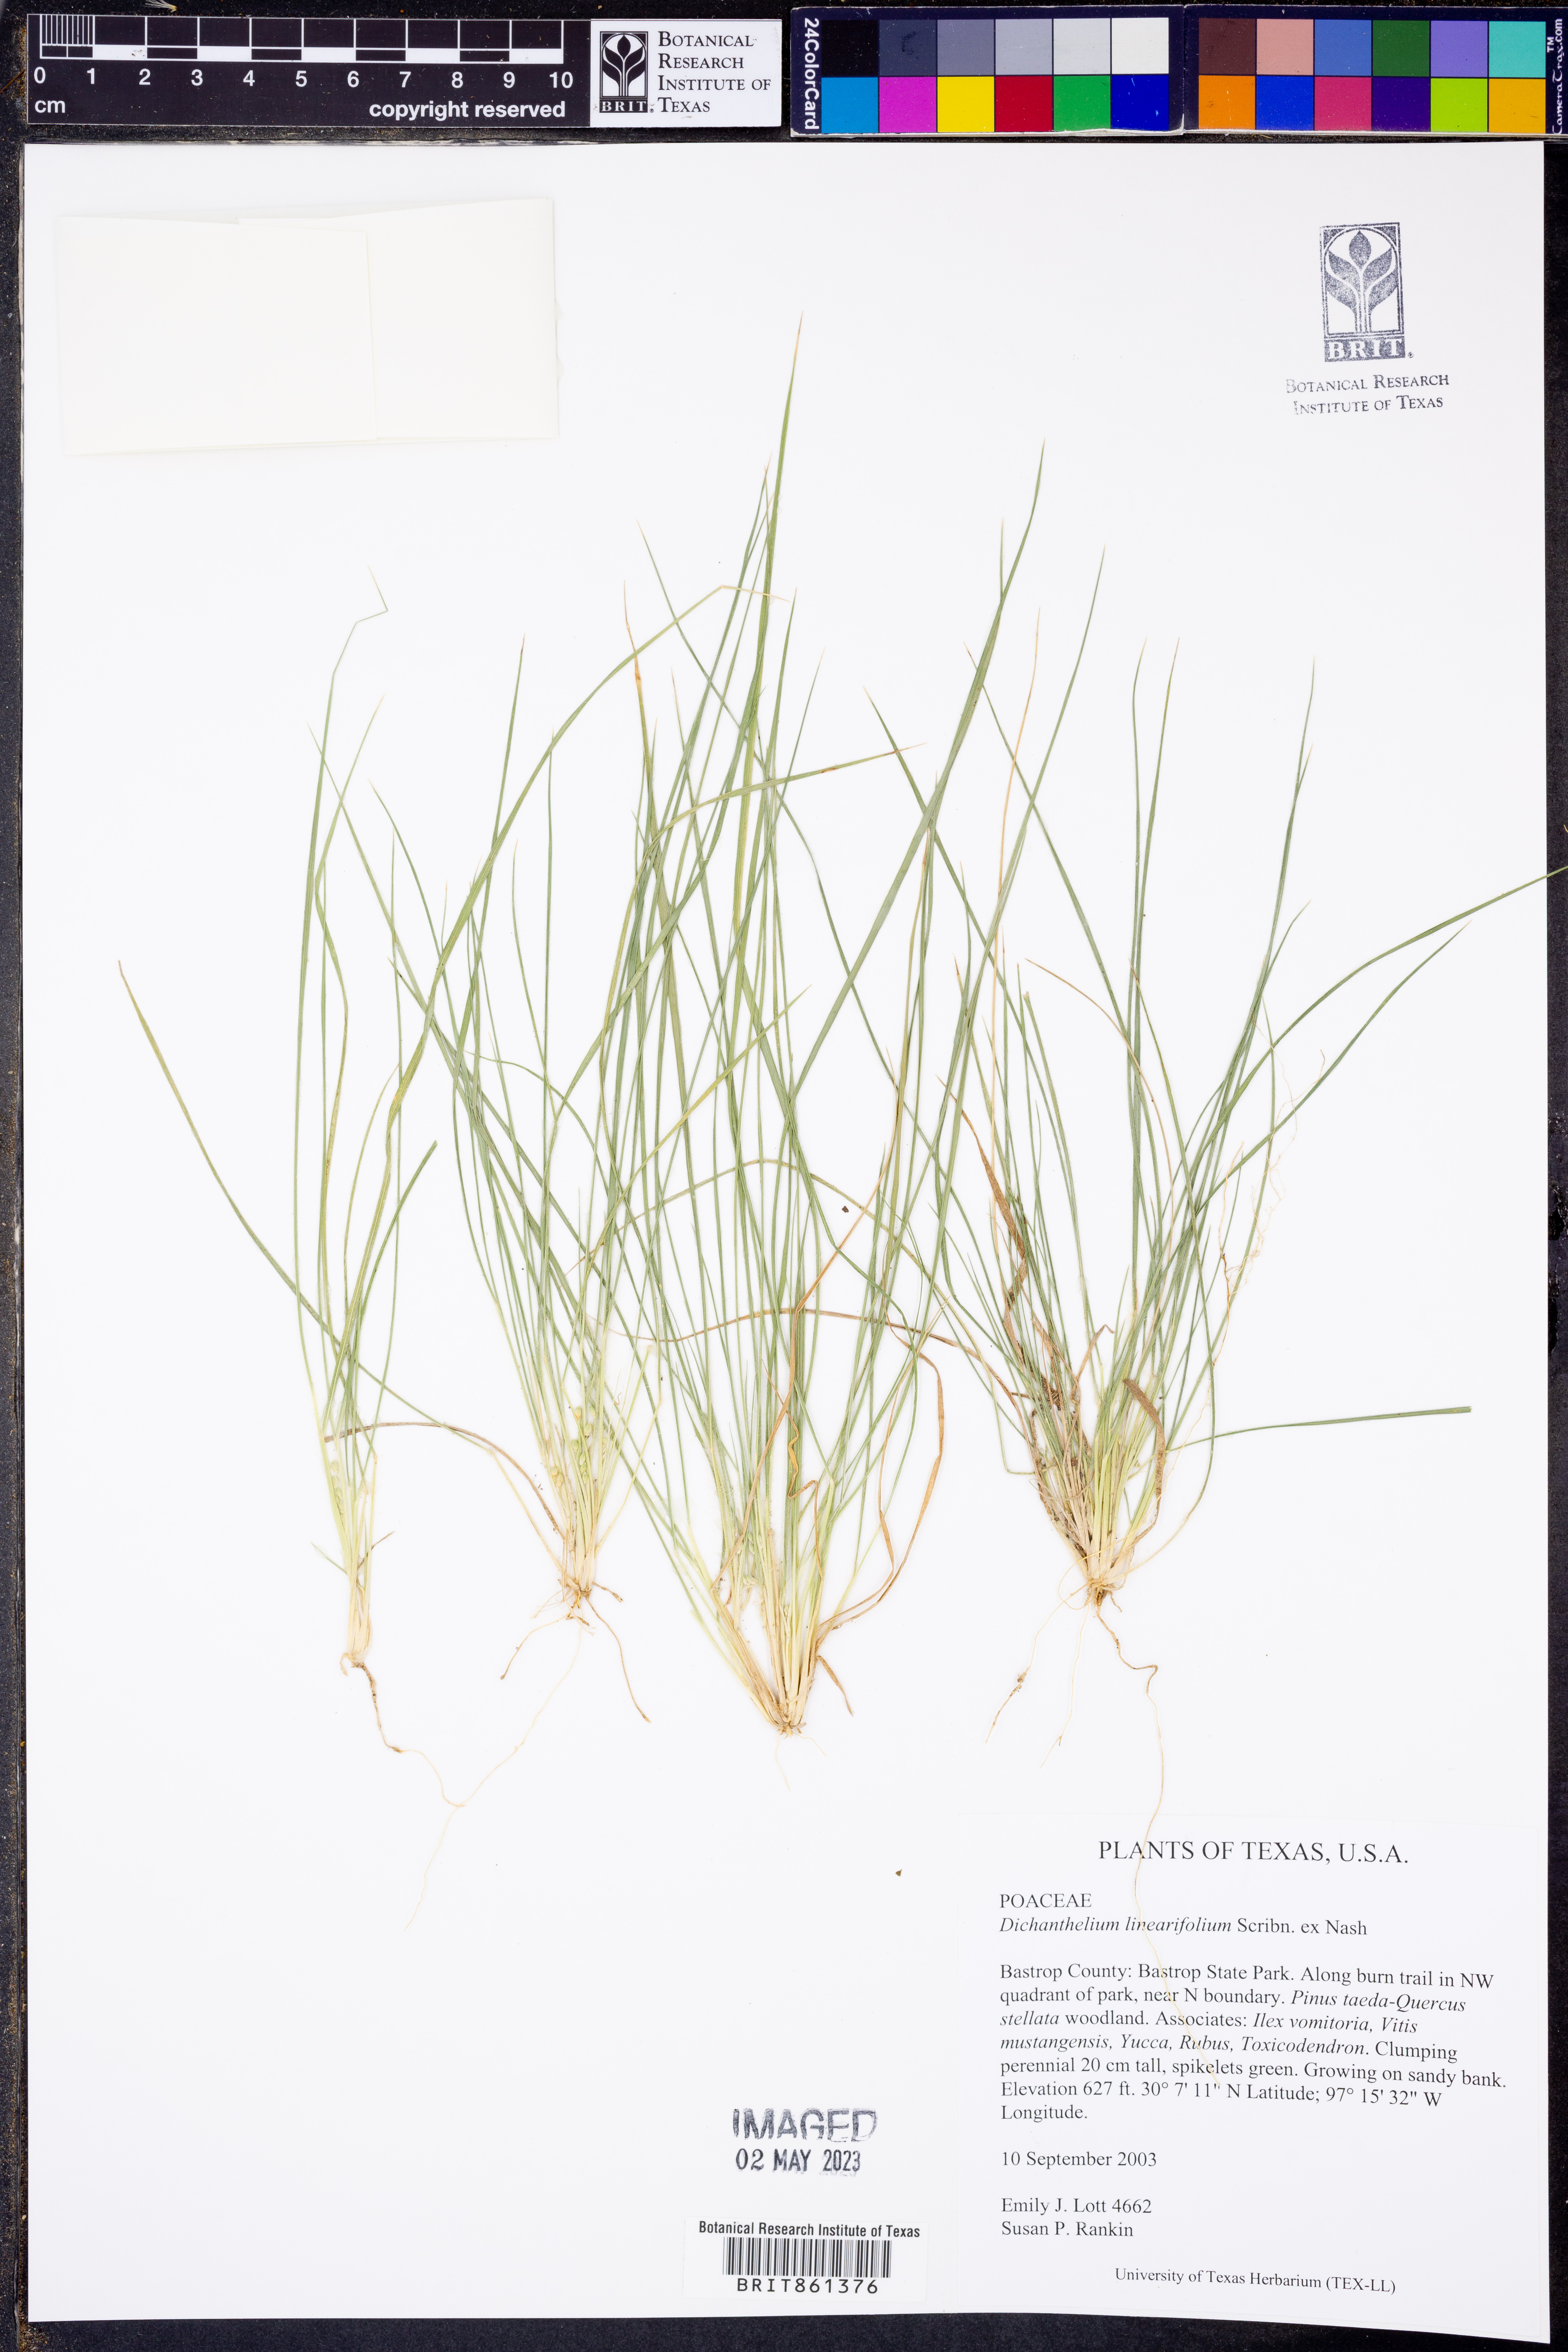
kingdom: Plantae
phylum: Tracheophyta
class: Liliopsida
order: Poales
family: Poaceae
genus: Dichanthelium
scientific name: Dichanthelium linearifolium
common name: Linear-leaved panicgrass
